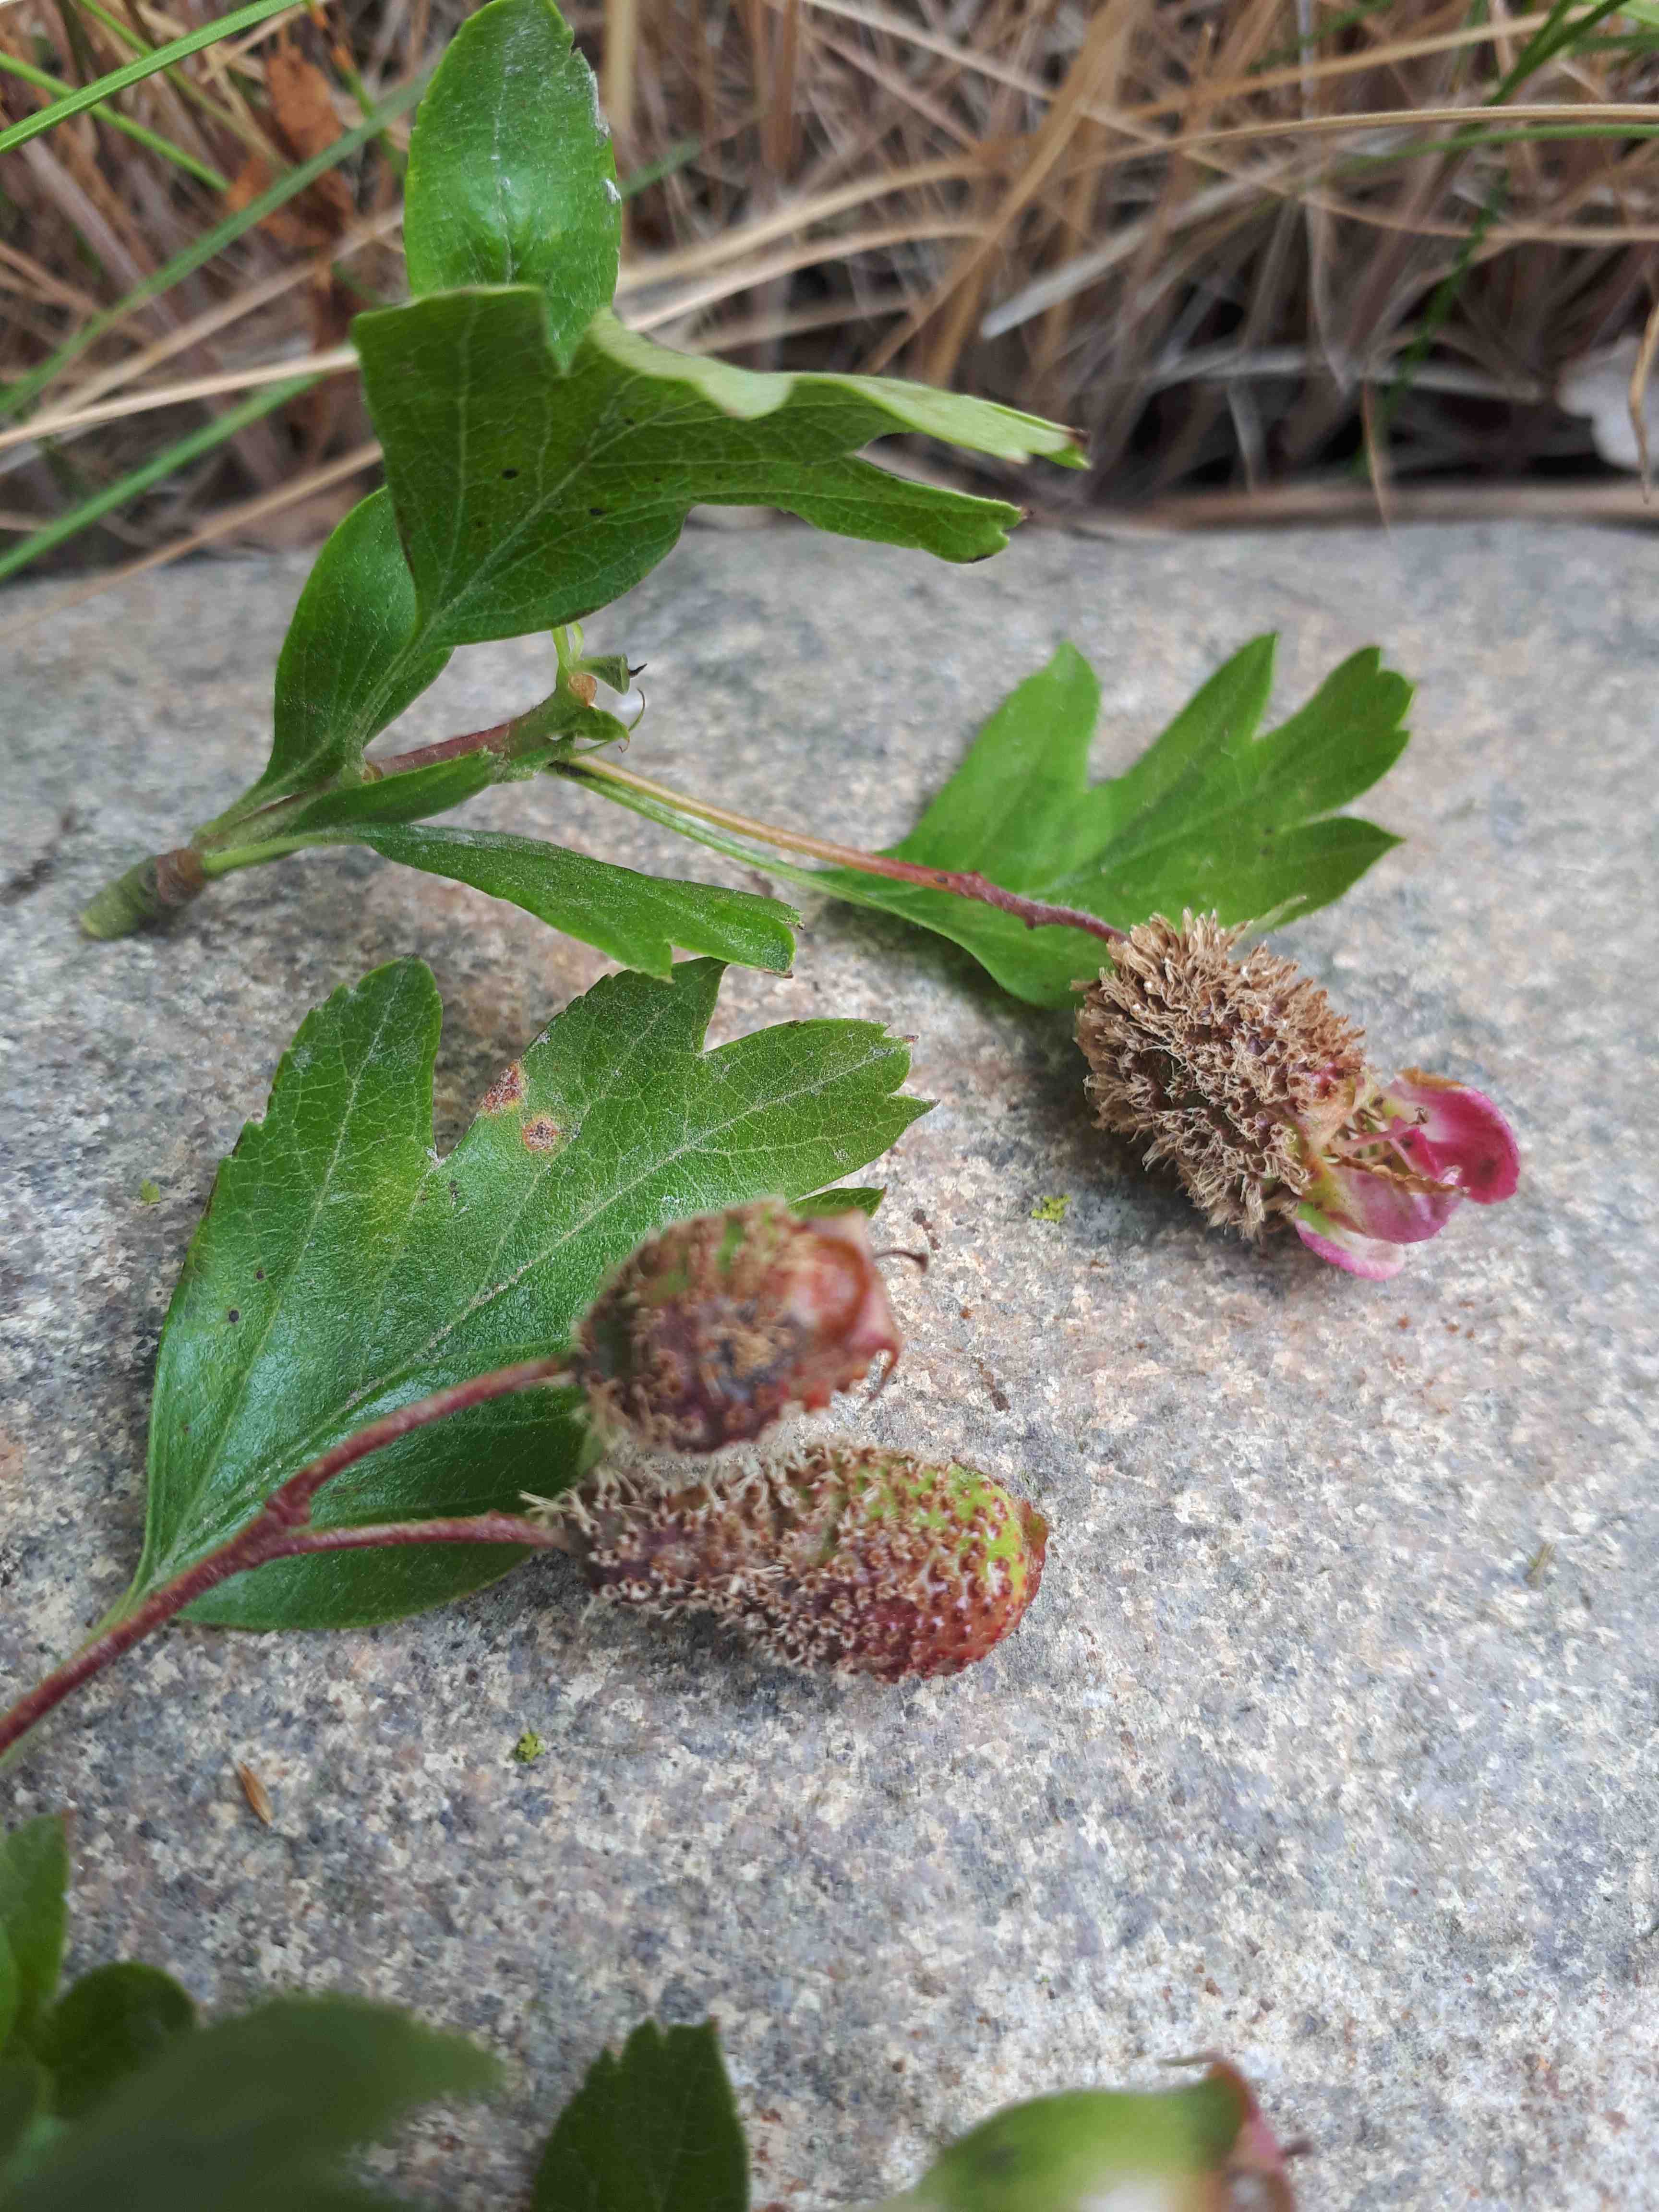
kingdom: Fungi
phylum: Basidiomycota
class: Pucciniomycetes
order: Pucciniales
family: Gymnosporangiaceae
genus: Gymnosporangium
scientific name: Gymnosporangium
